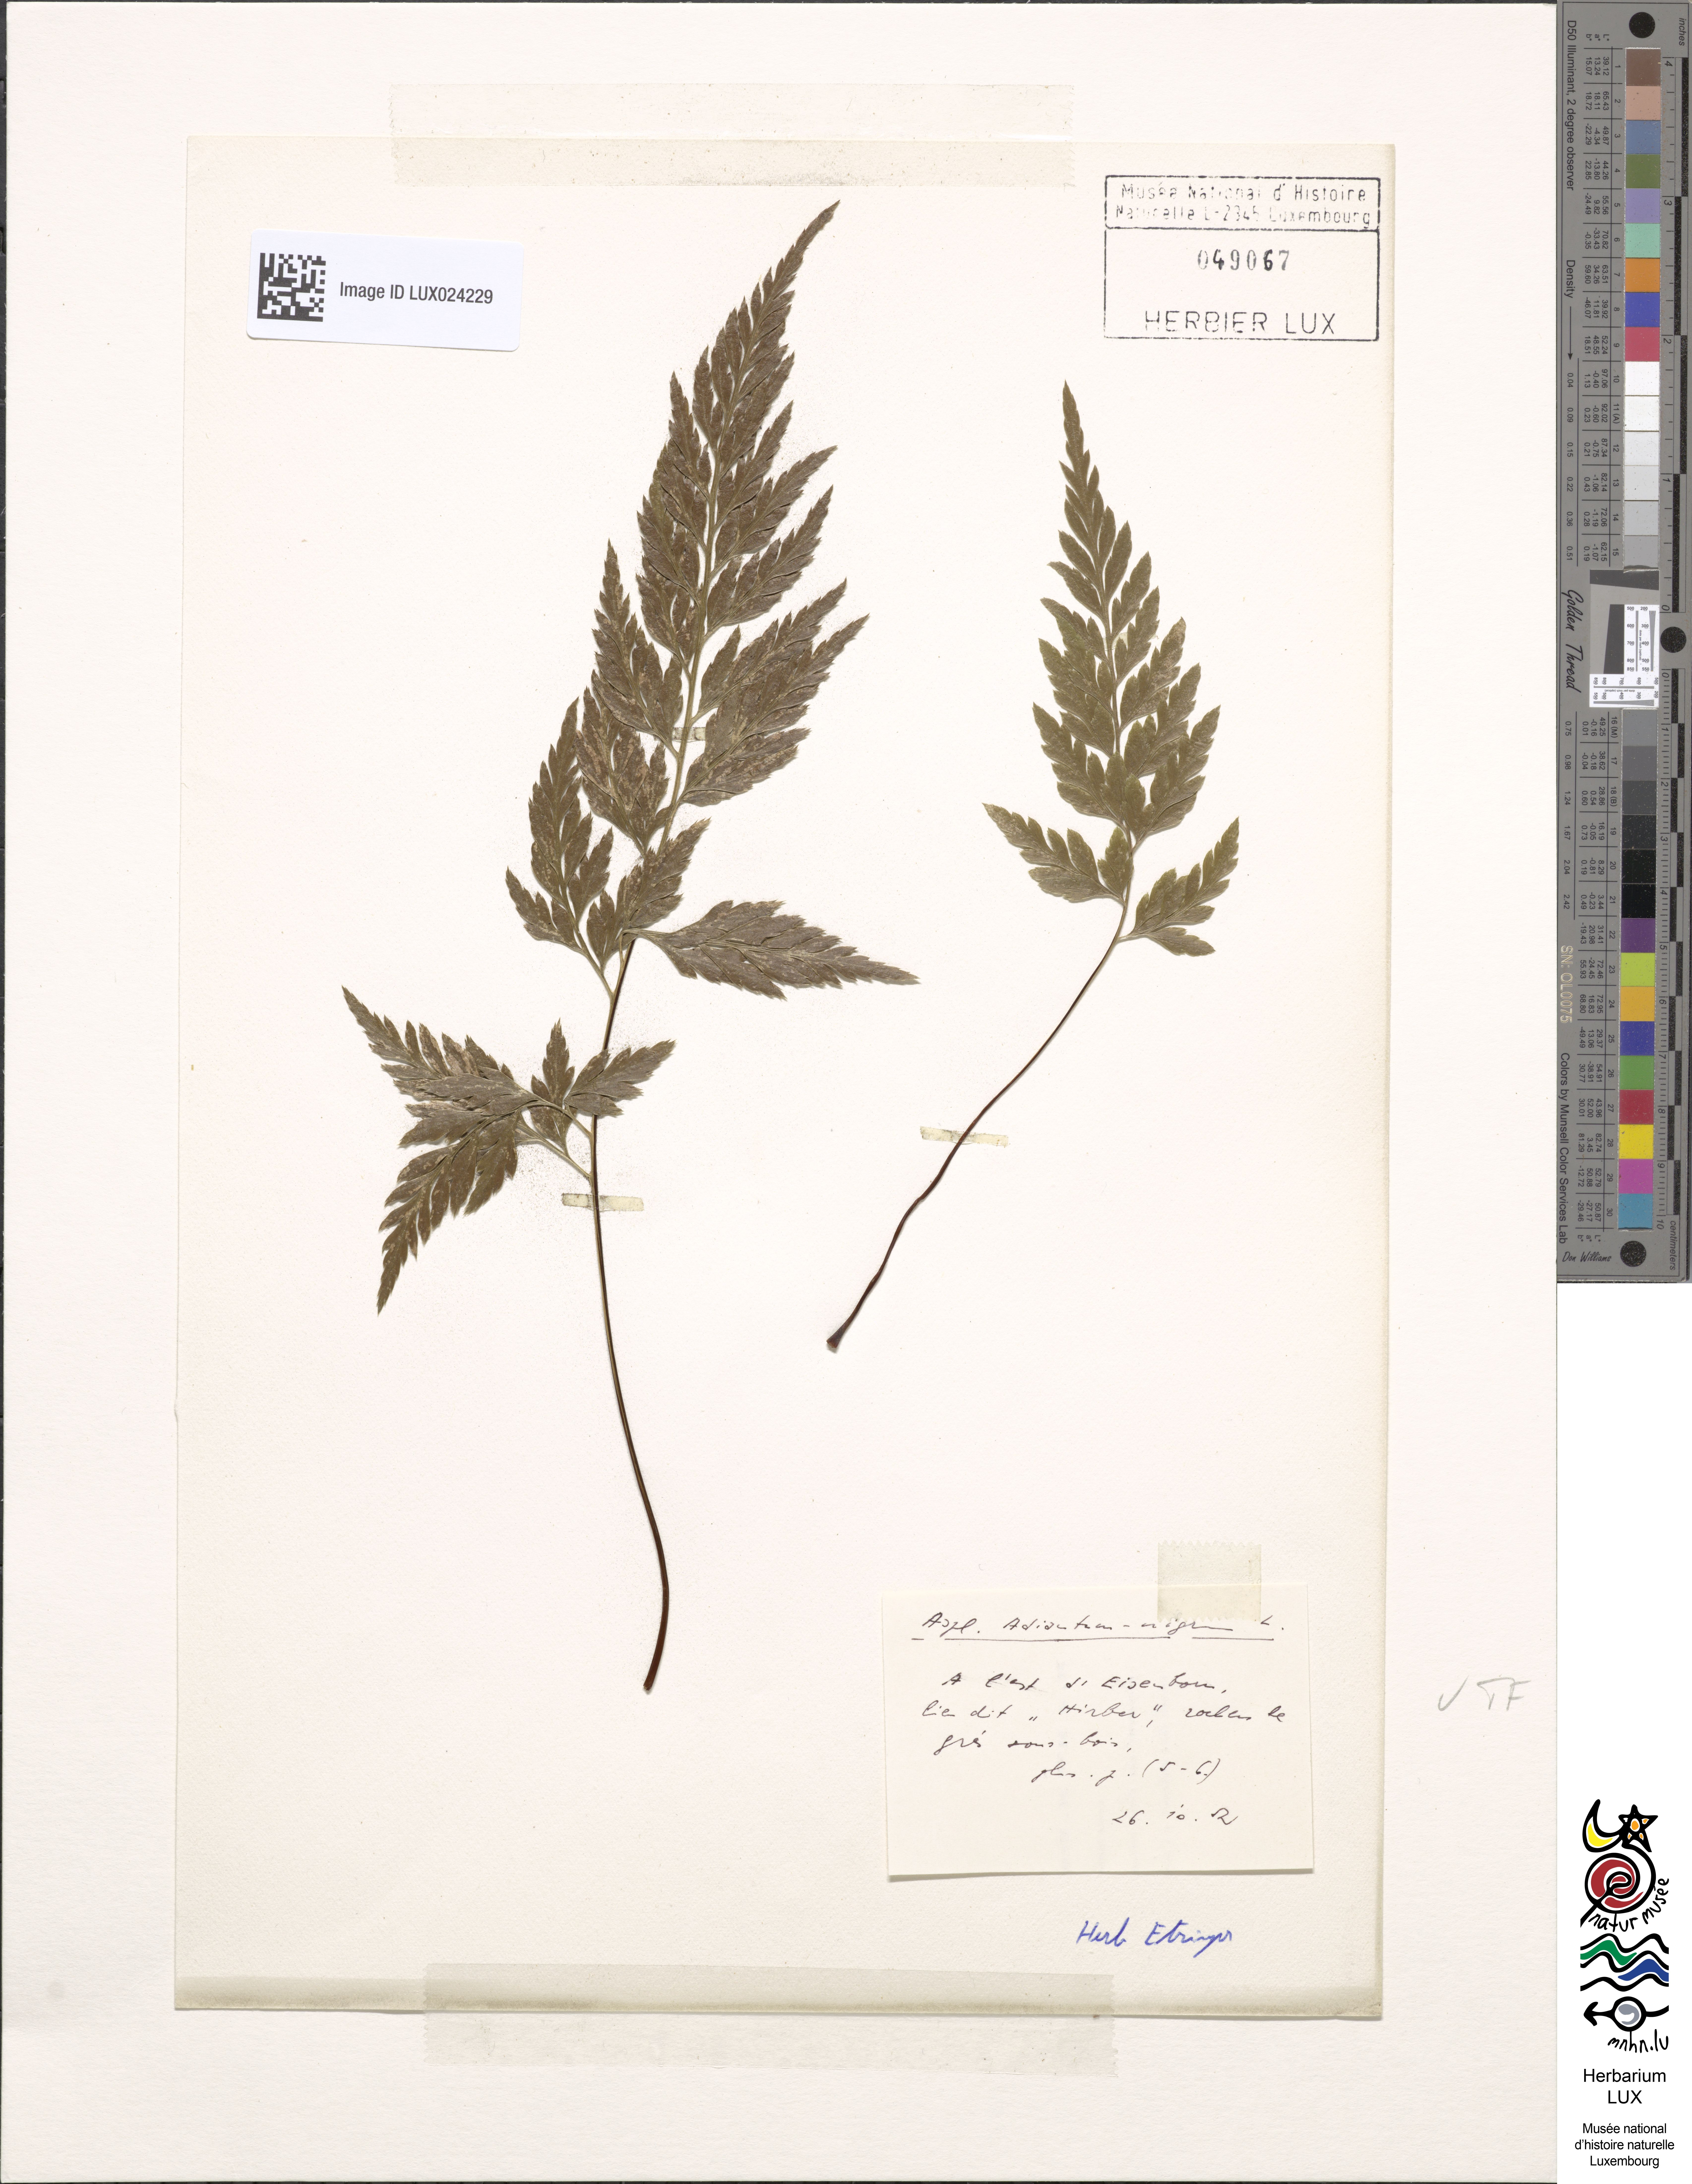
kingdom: Plantae
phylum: Tracheophyta
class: Polypodiopsida
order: Polypodiales
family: Aspleniaceae
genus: Asplenium
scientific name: Asplenium adiantum-nigrum
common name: Black spleenwort
